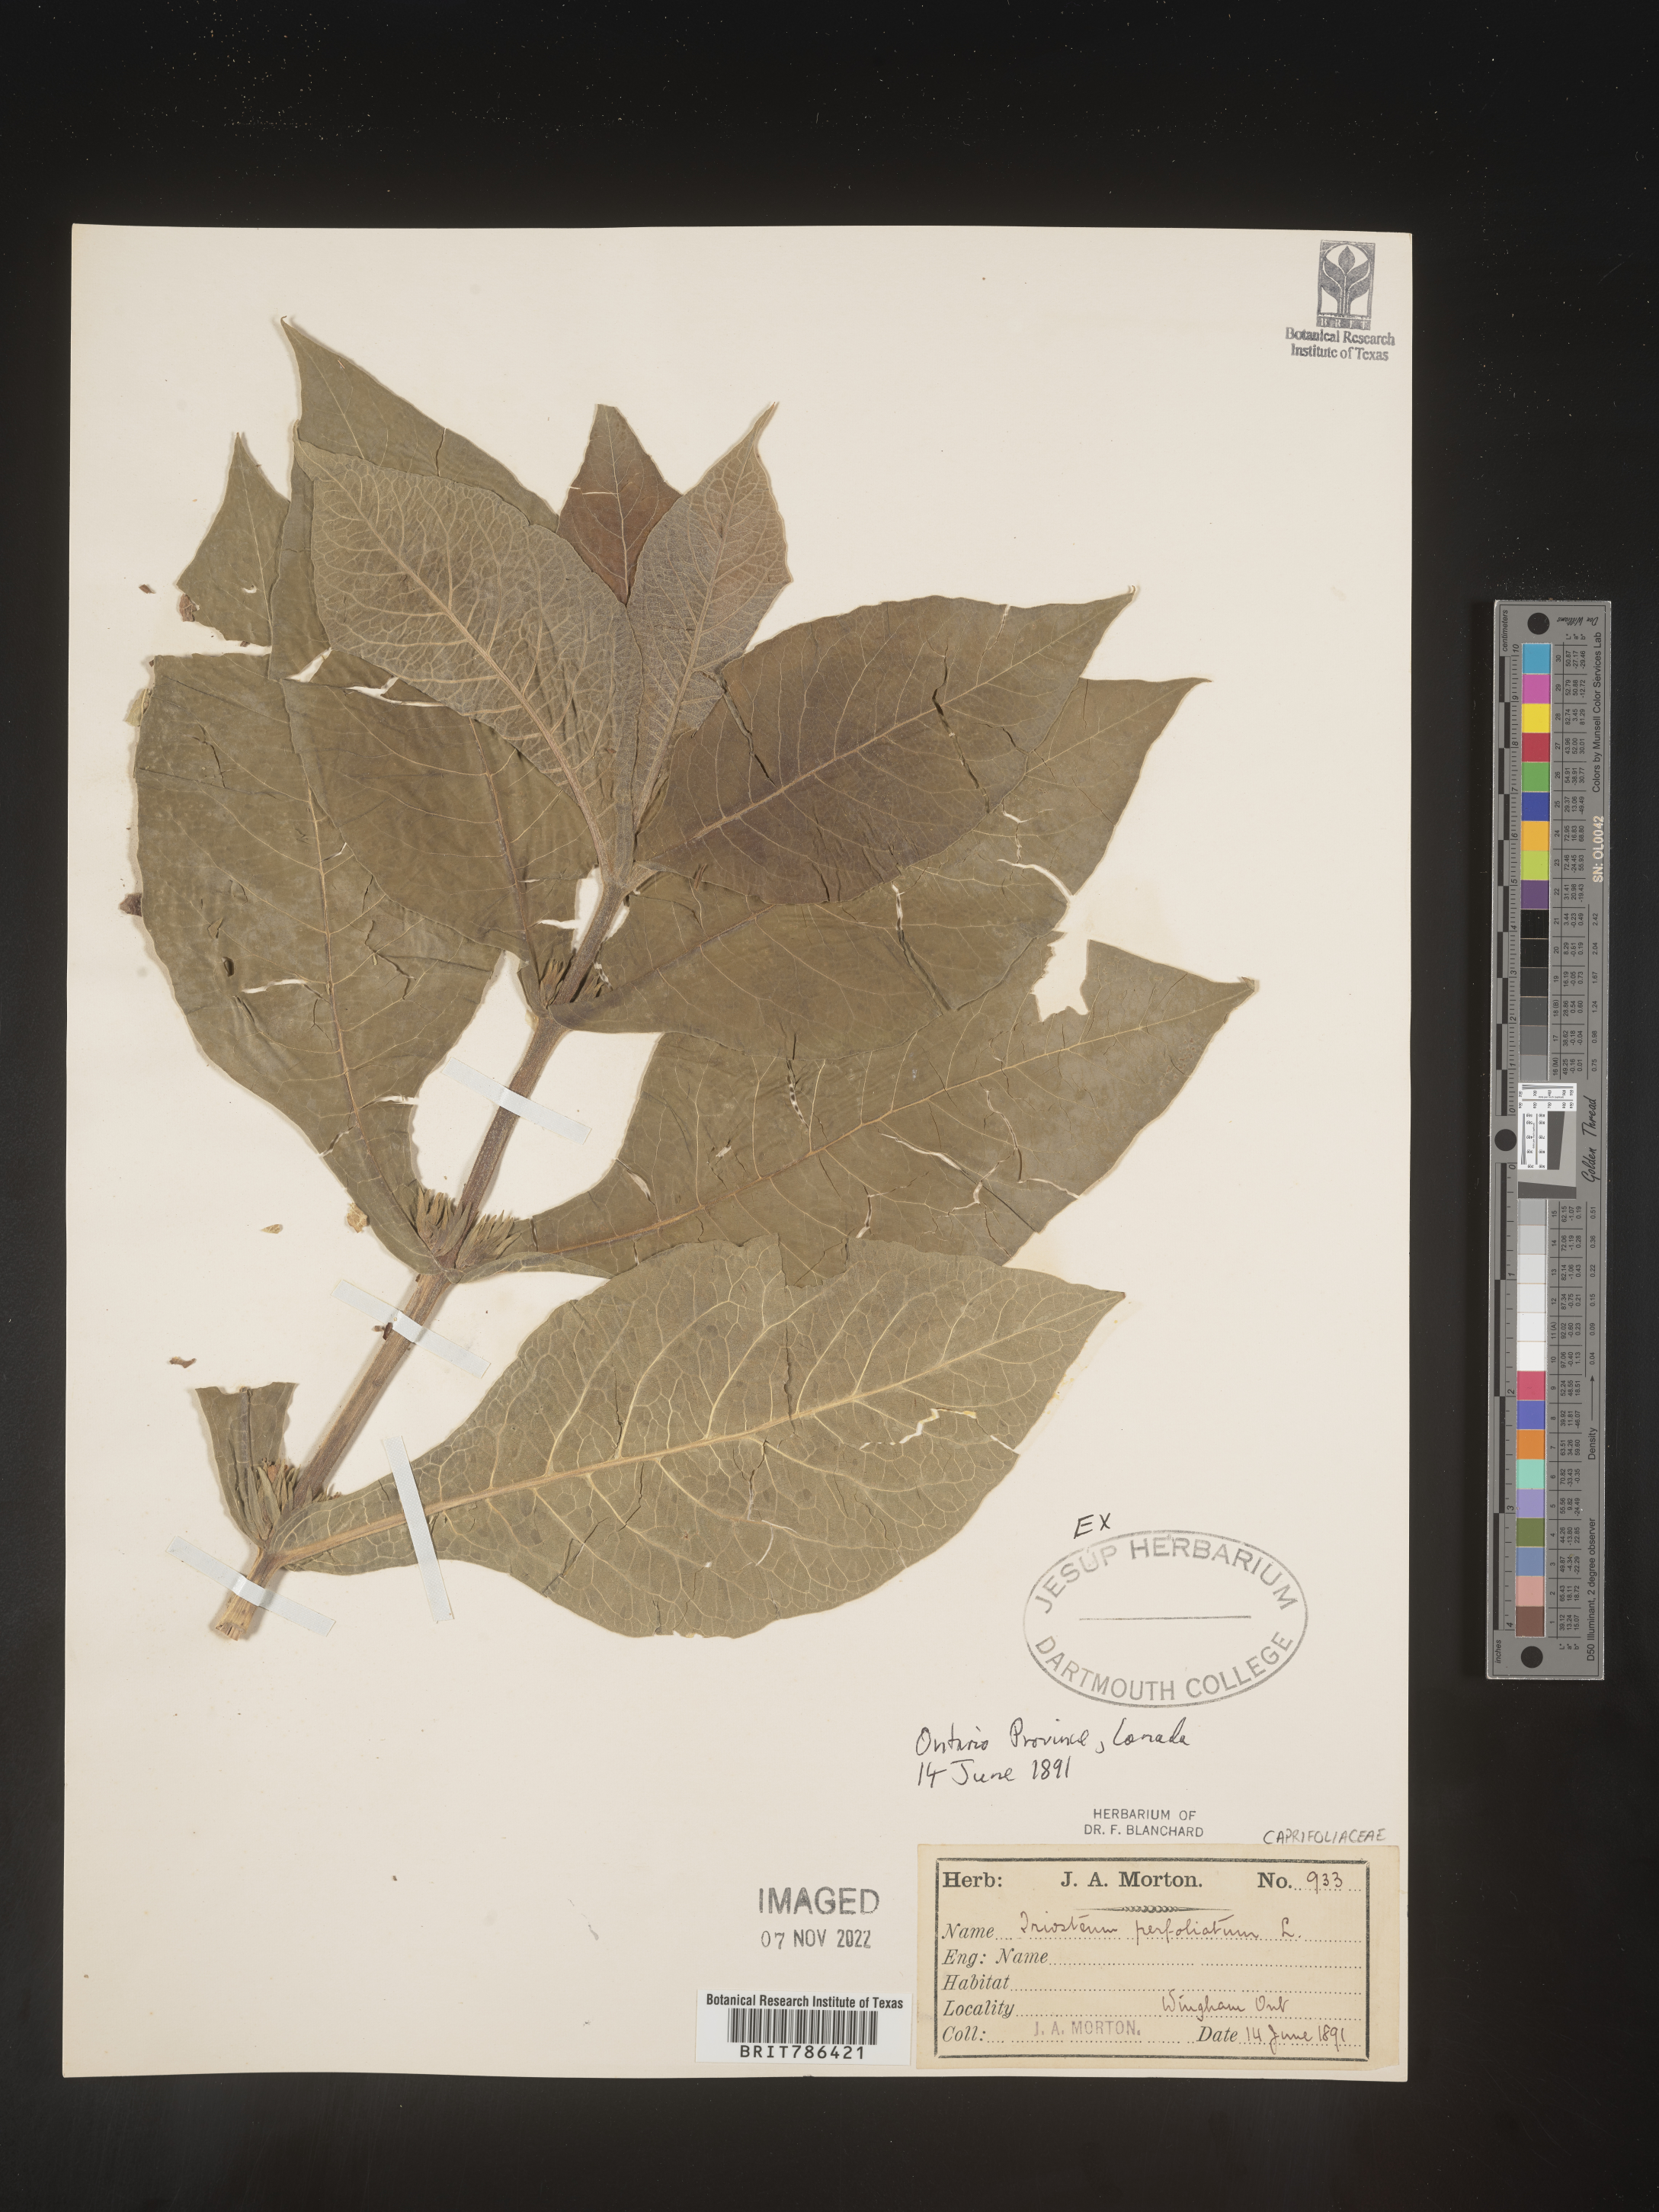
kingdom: Plantae
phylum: Tracheophyta
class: Magnoliopsida
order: Dipsacales
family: Caprifoliaceae
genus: Triosteum
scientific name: Triosteum perfoliatum
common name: Common horse-gentian
